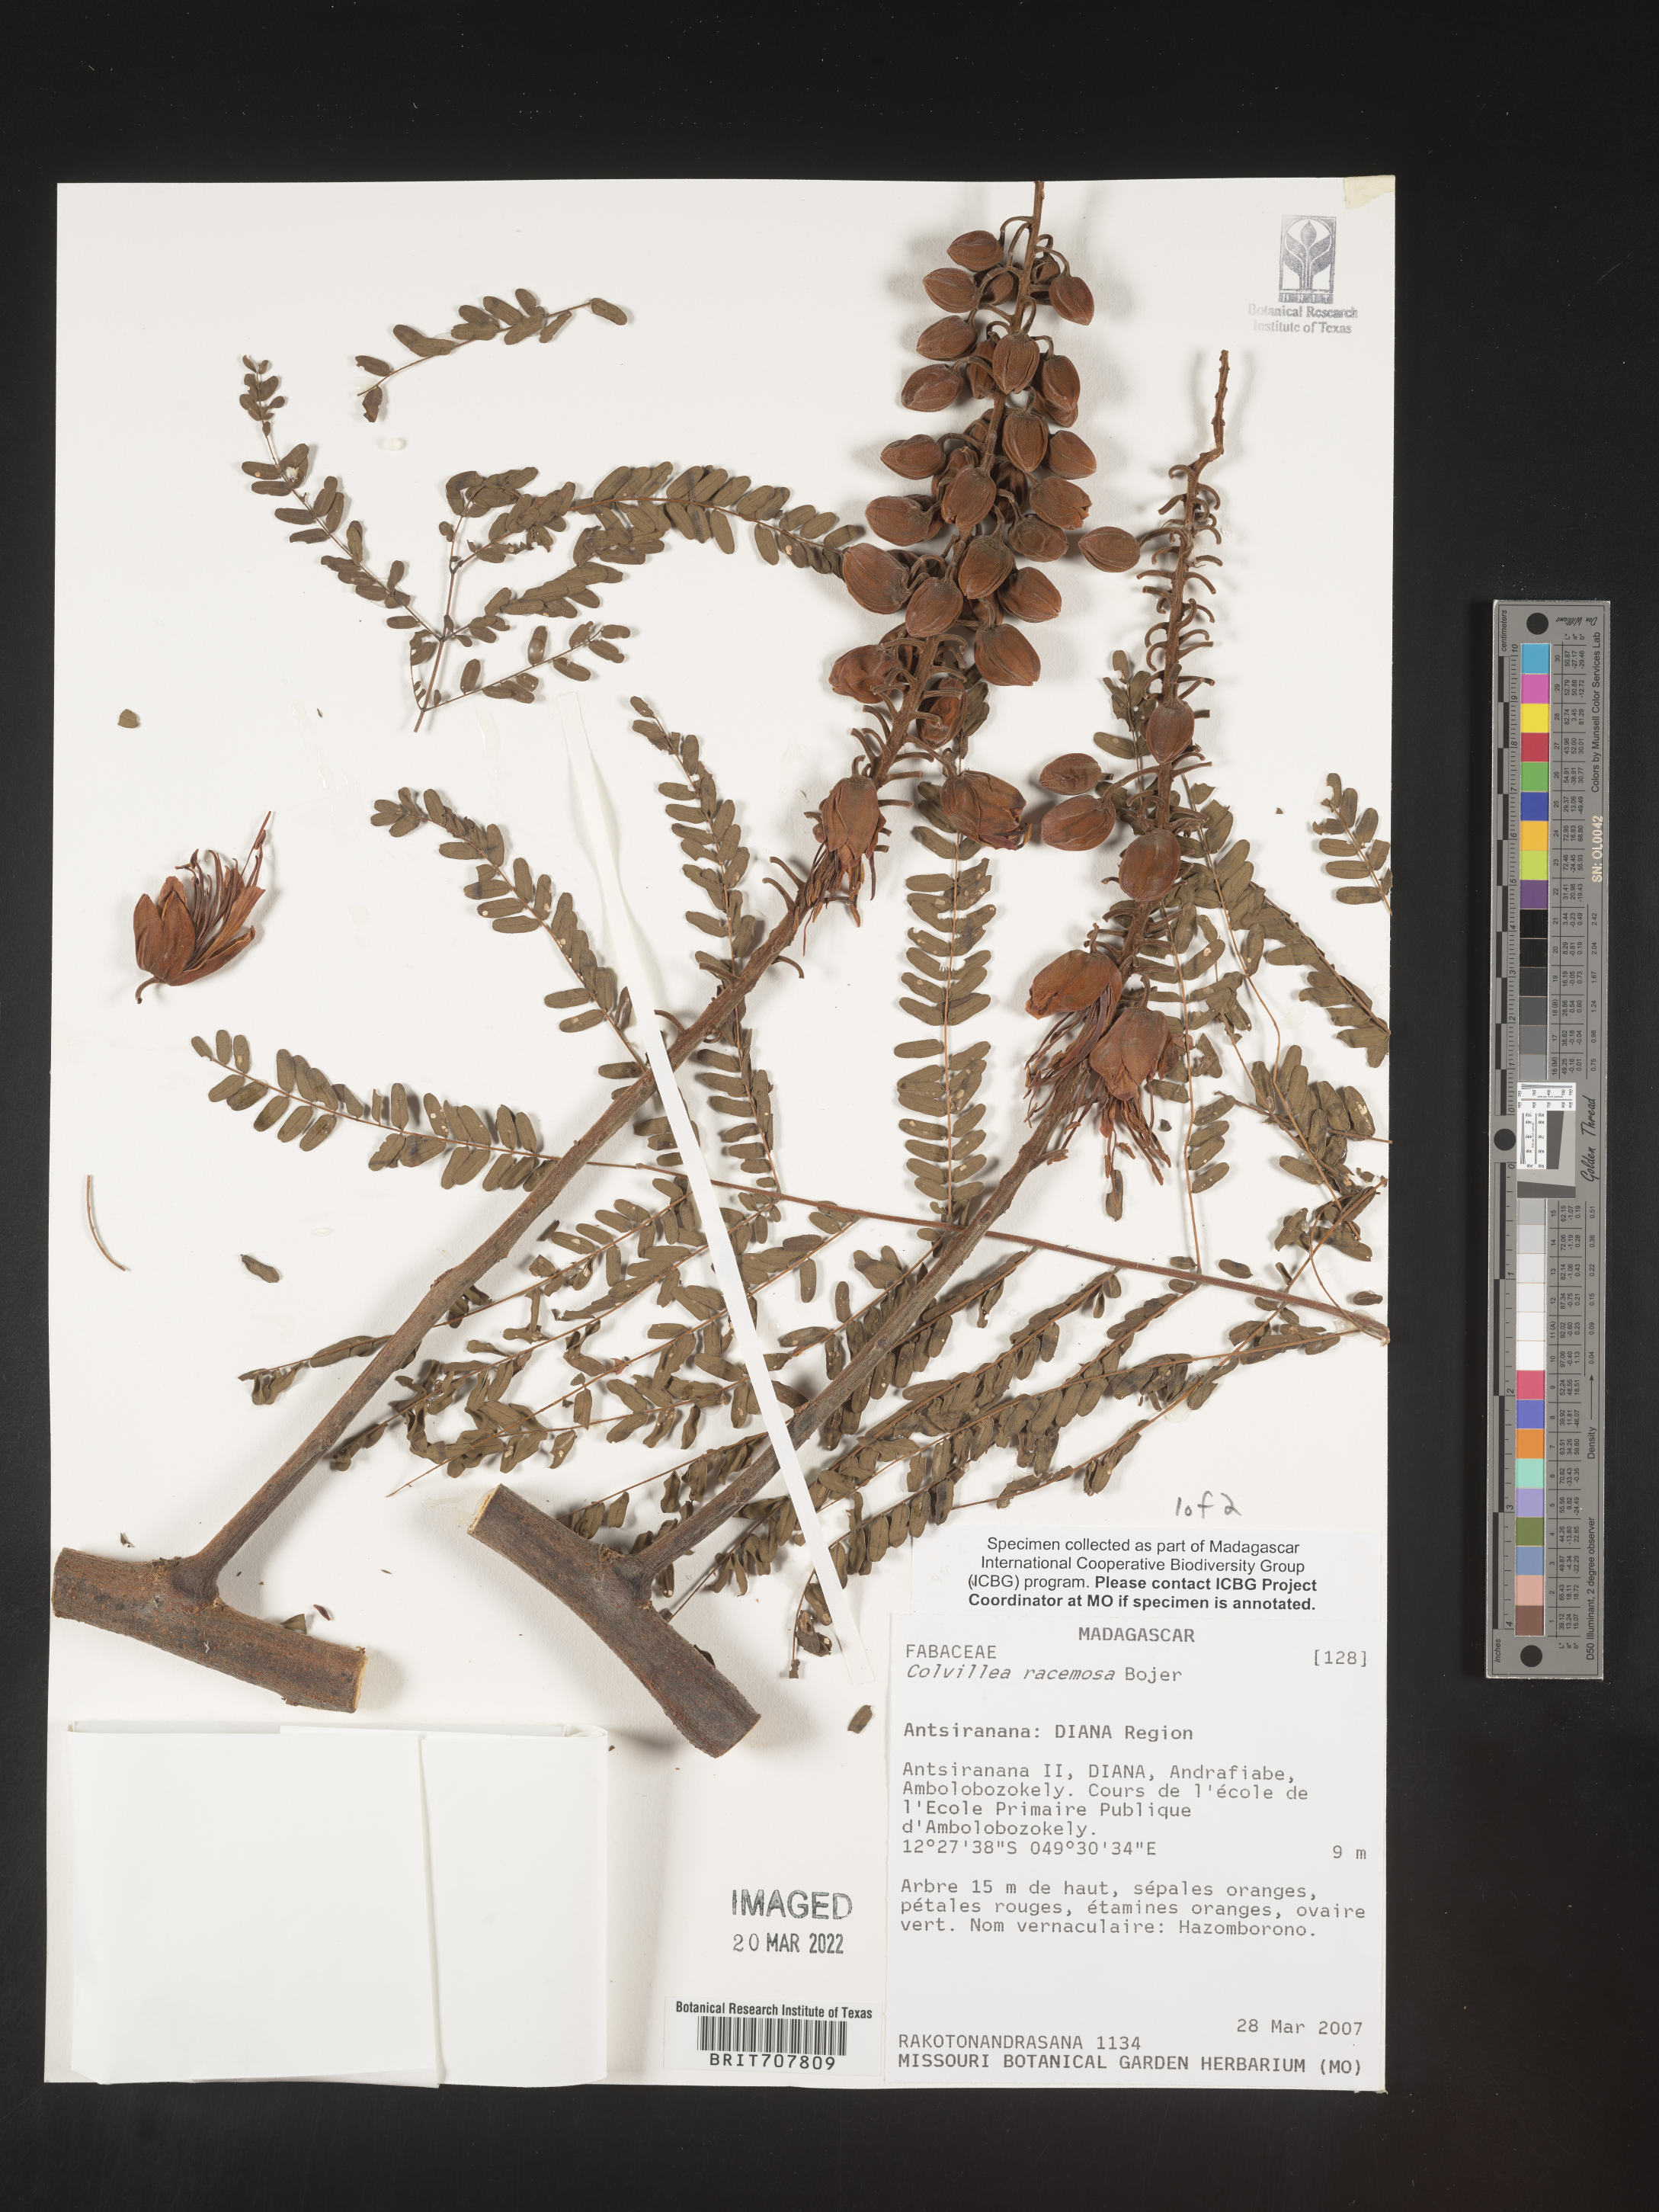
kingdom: Plantae
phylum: Tracheophyta
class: Magnoliopsida
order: Fabales
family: Fabaceae
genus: Colvillea
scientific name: Colvillea
